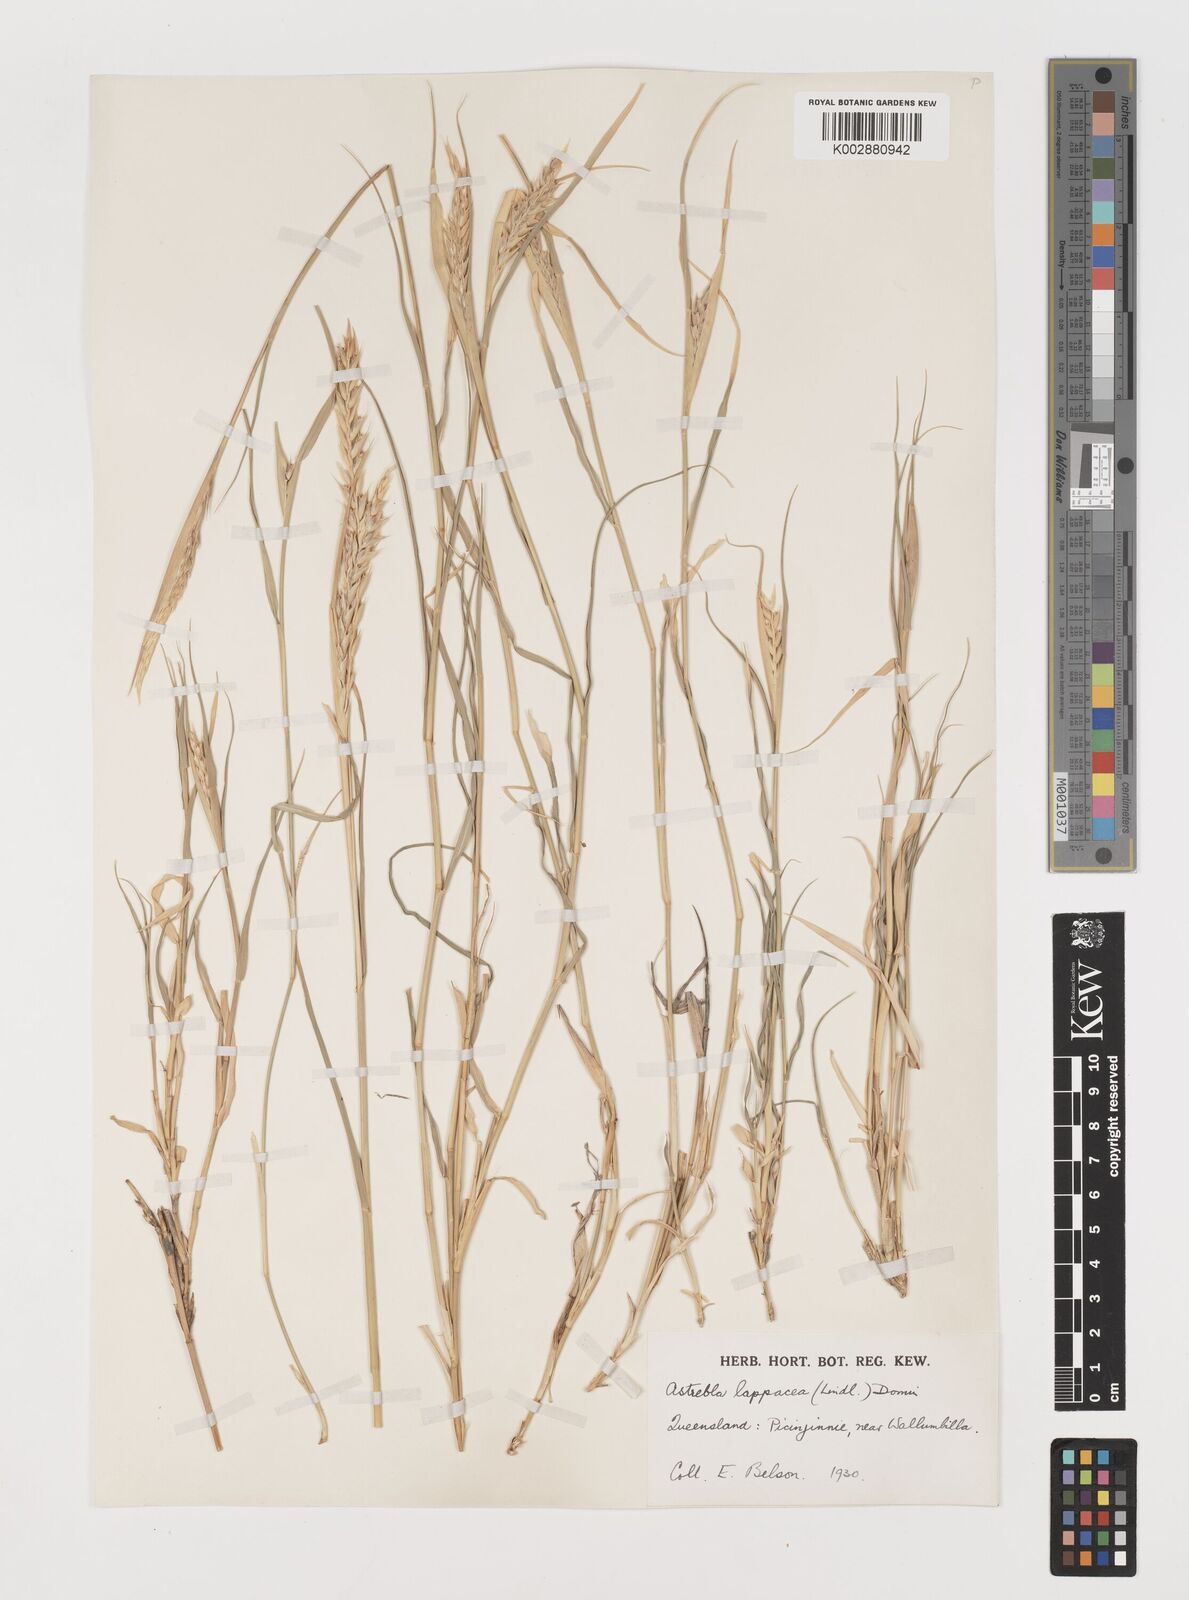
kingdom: Plantae
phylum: Tracheophyta
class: Liliopsida
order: Poales
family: Poaceae
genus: Astrebla
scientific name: Astrebla lappacea
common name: Curly mitchell grass
